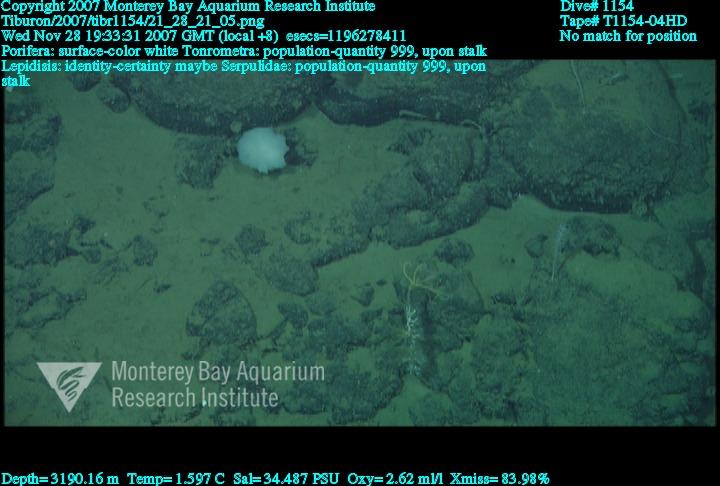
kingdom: Animalia
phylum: Porifera
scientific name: Porifera
